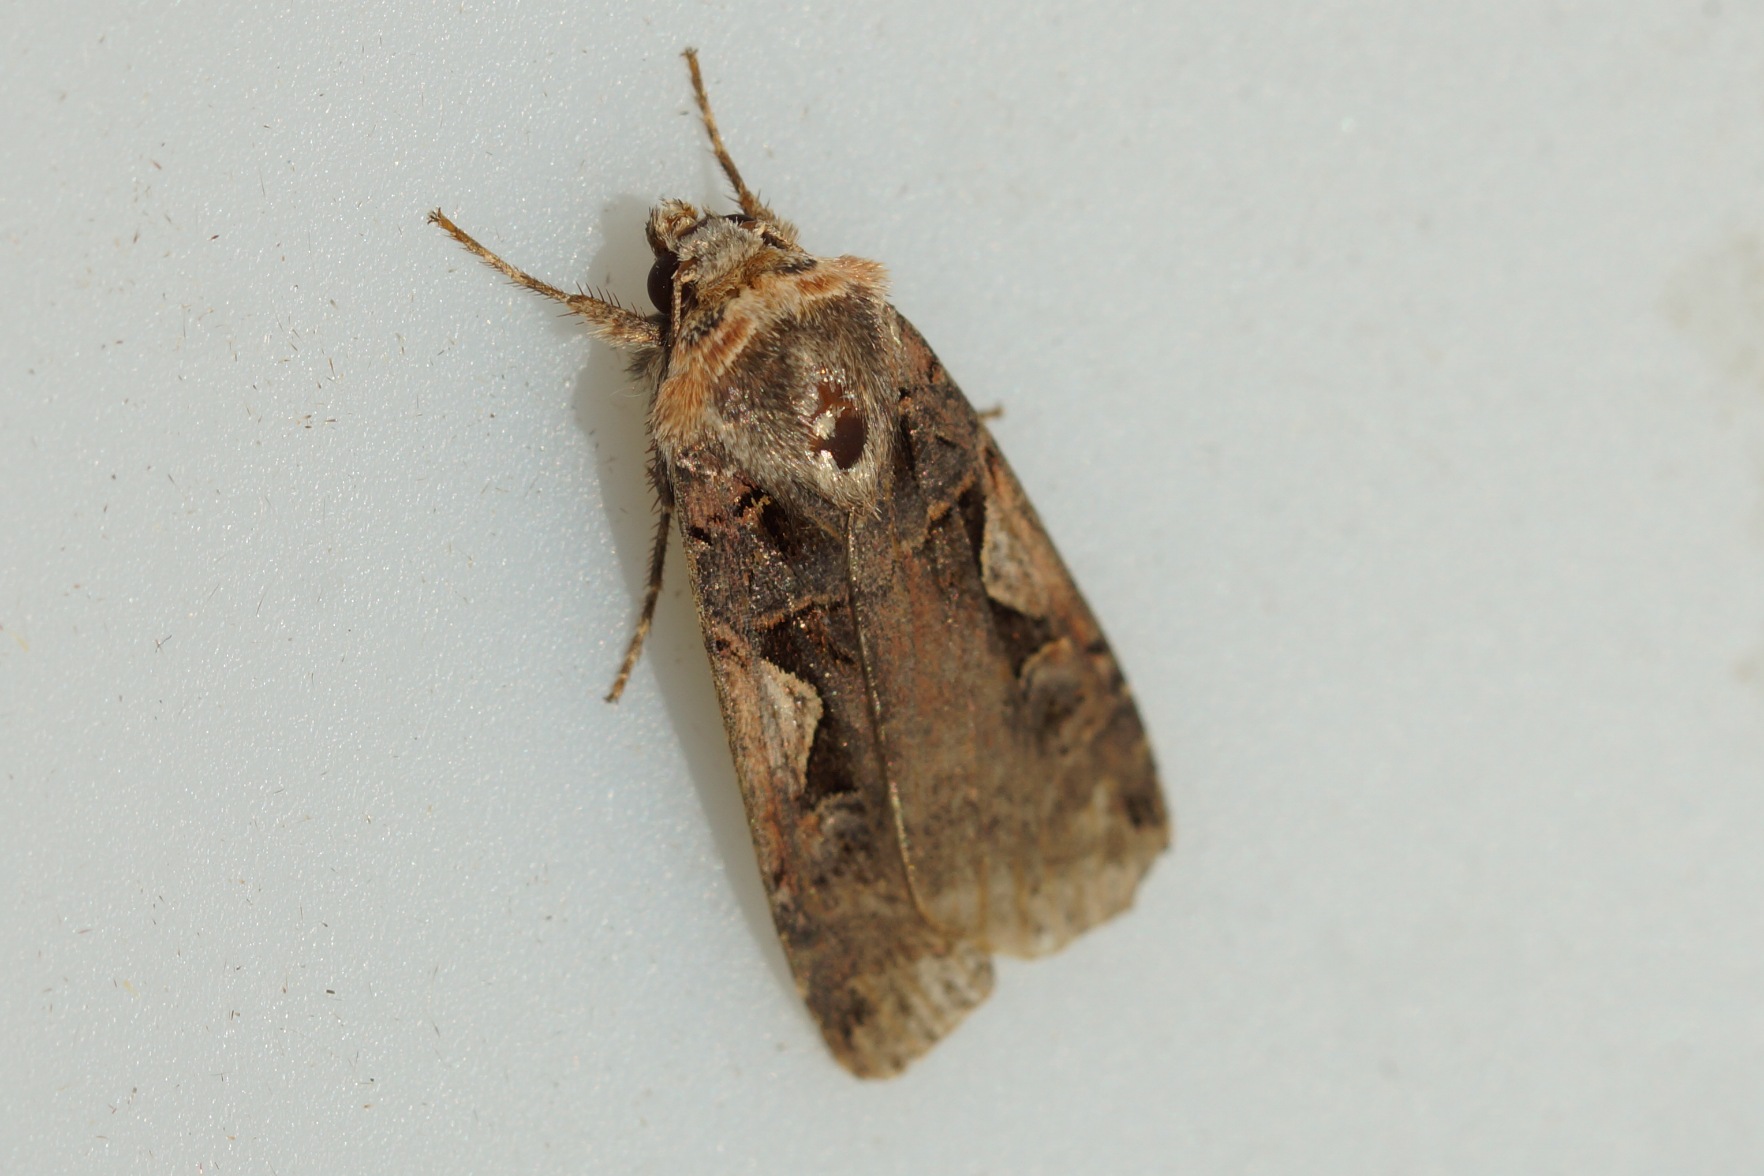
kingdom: Animalia
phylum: Arthropoda
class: Insecta
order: Lepidoptera
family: Noctuidae
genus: Xestia
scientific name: Xestia c-nigrum
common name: Det sorte c
